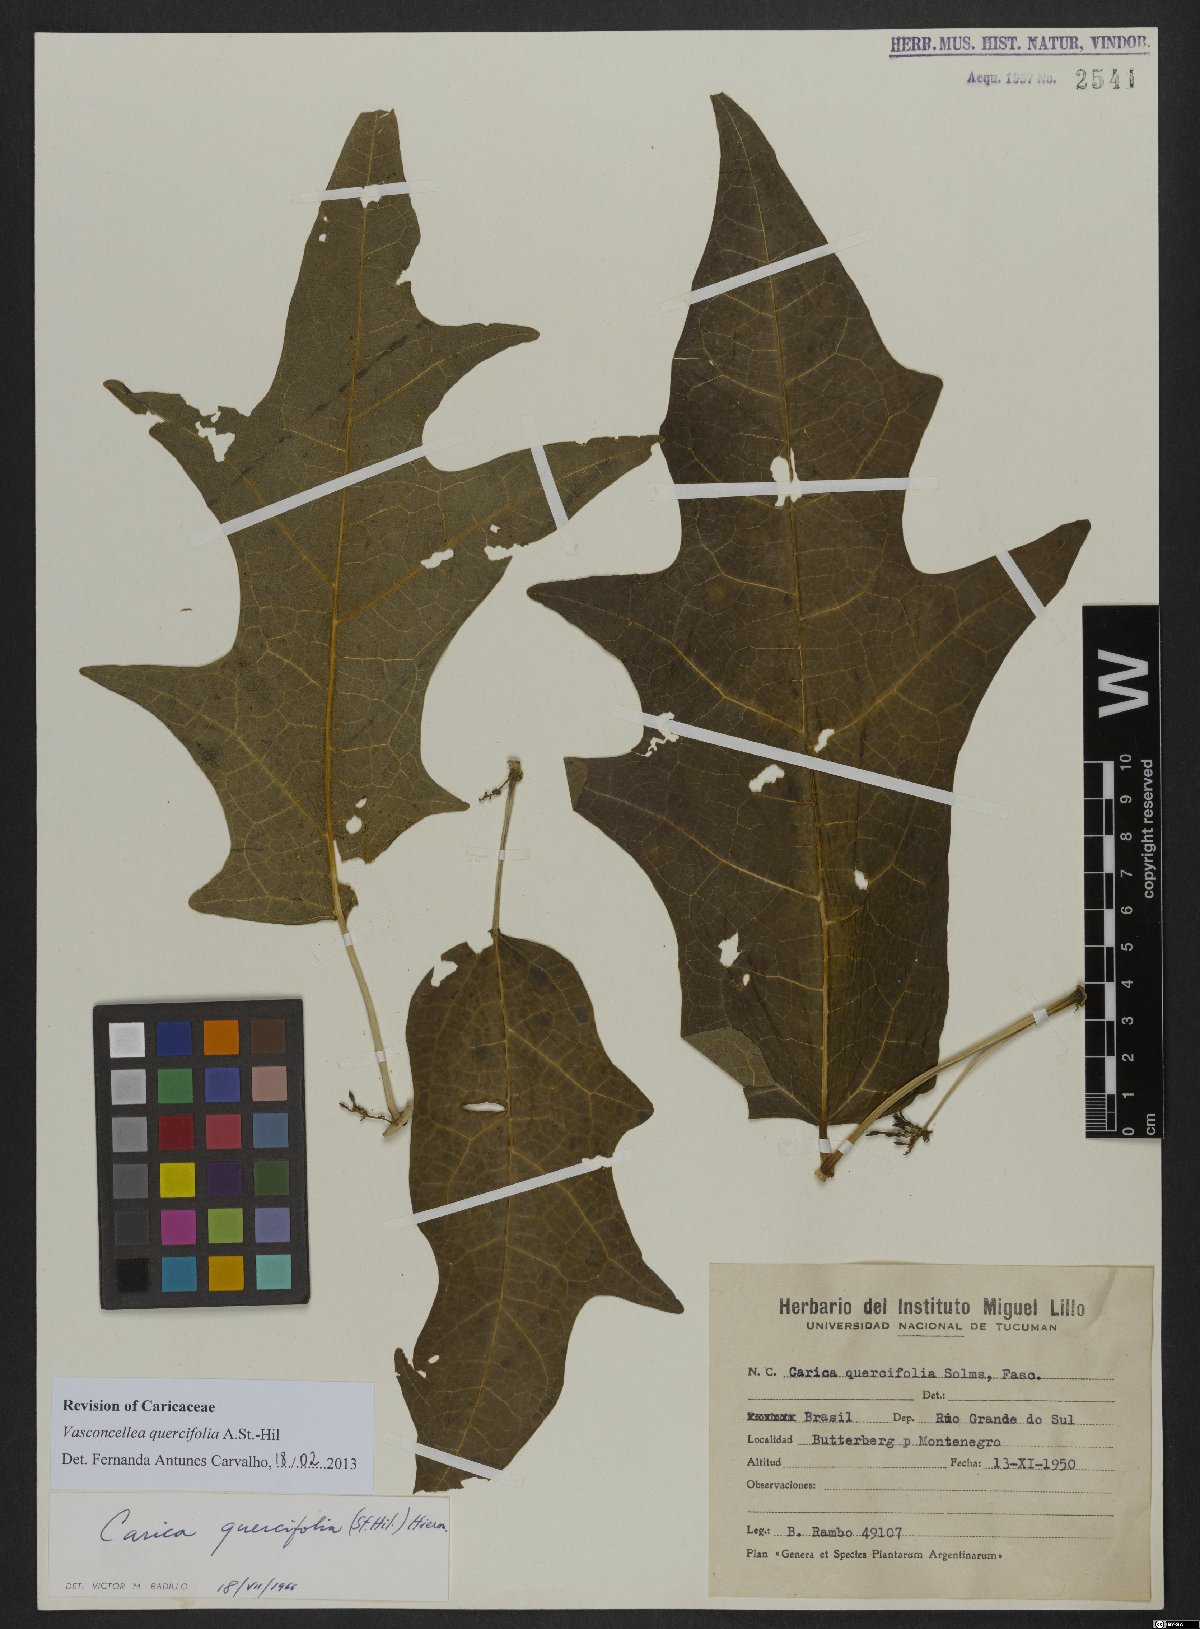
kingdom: Plantae
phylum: Tracheophyta
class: Magnoliopsida
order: Brassicales
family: Caricaceae
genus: Vasconcellea
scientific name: Vasconcellea quercifolia
